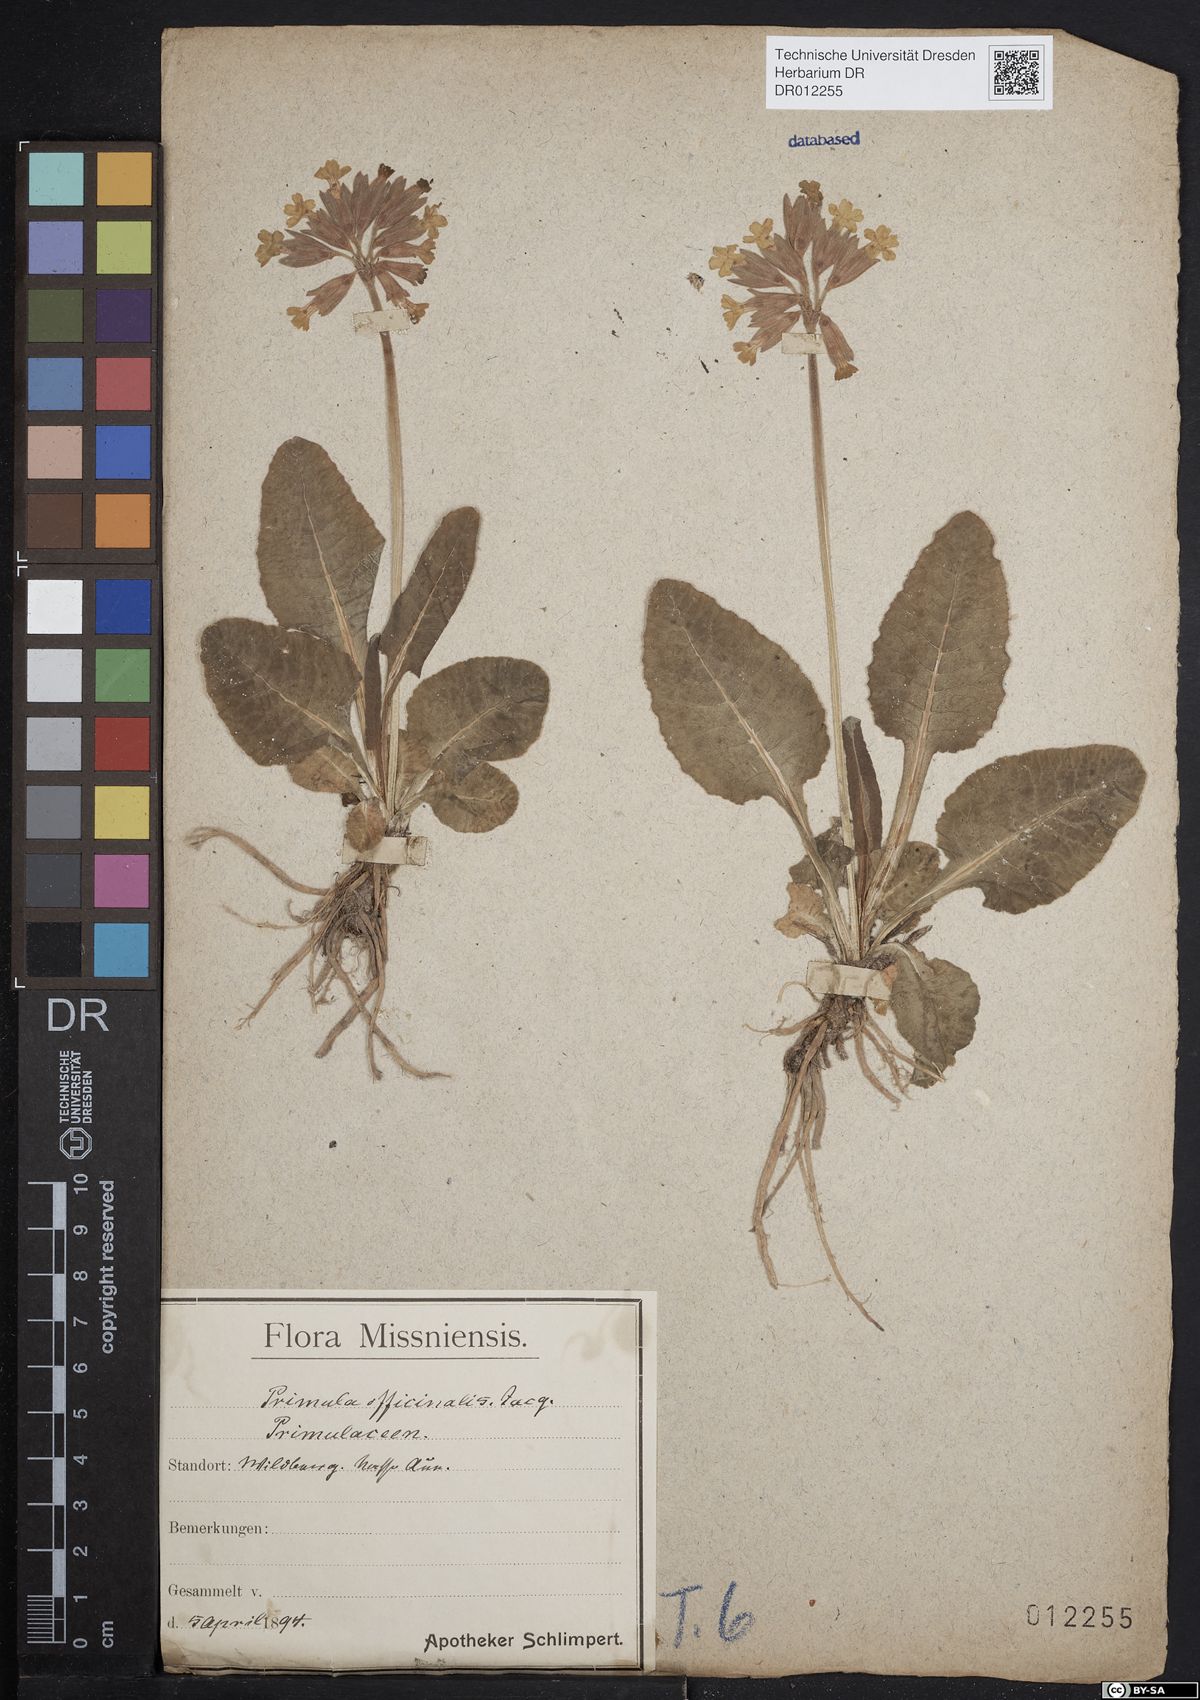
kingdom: Plantae
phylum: Tracheophyta
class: Magnoliopsida
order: Ericales
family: Primulaceae
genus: Primula
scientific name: Primula veris
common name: Cowslip
